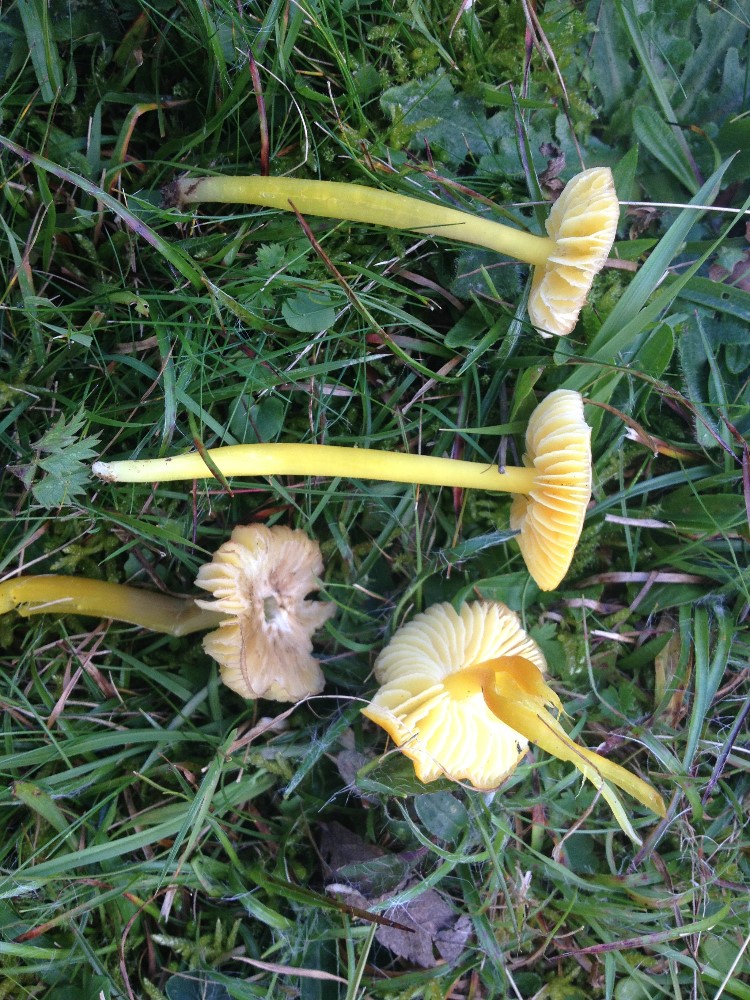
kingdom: Fungi
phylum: Basidiomycota
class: Agaricomycetes
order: Agaricales
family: Hygrophoraceae
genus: Hygrocybe
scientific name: Hygrocybe chlorophana
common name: gul vokshat
